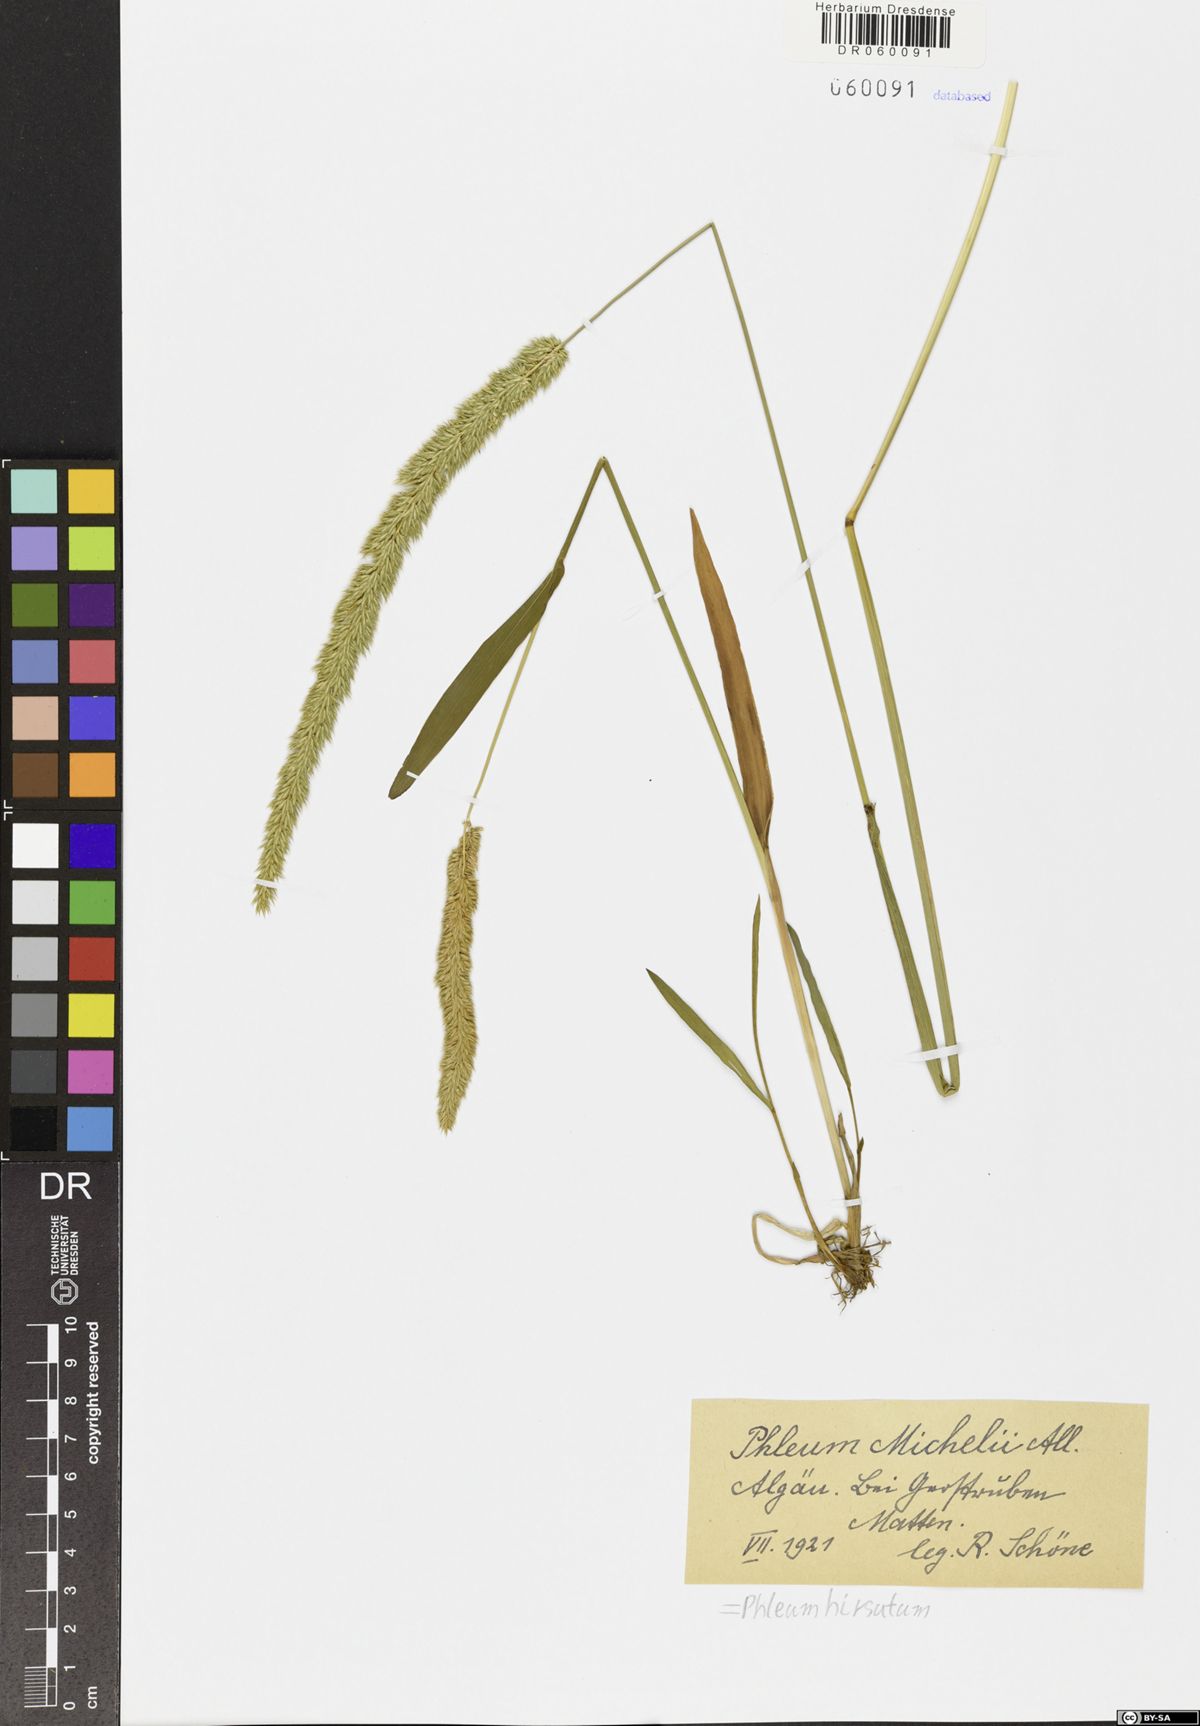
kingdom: Plantae
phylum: Tracheophyta
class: Liliopsida
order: Poales
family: Poaceae
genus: Phleum
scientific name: Phleum hirsutum
